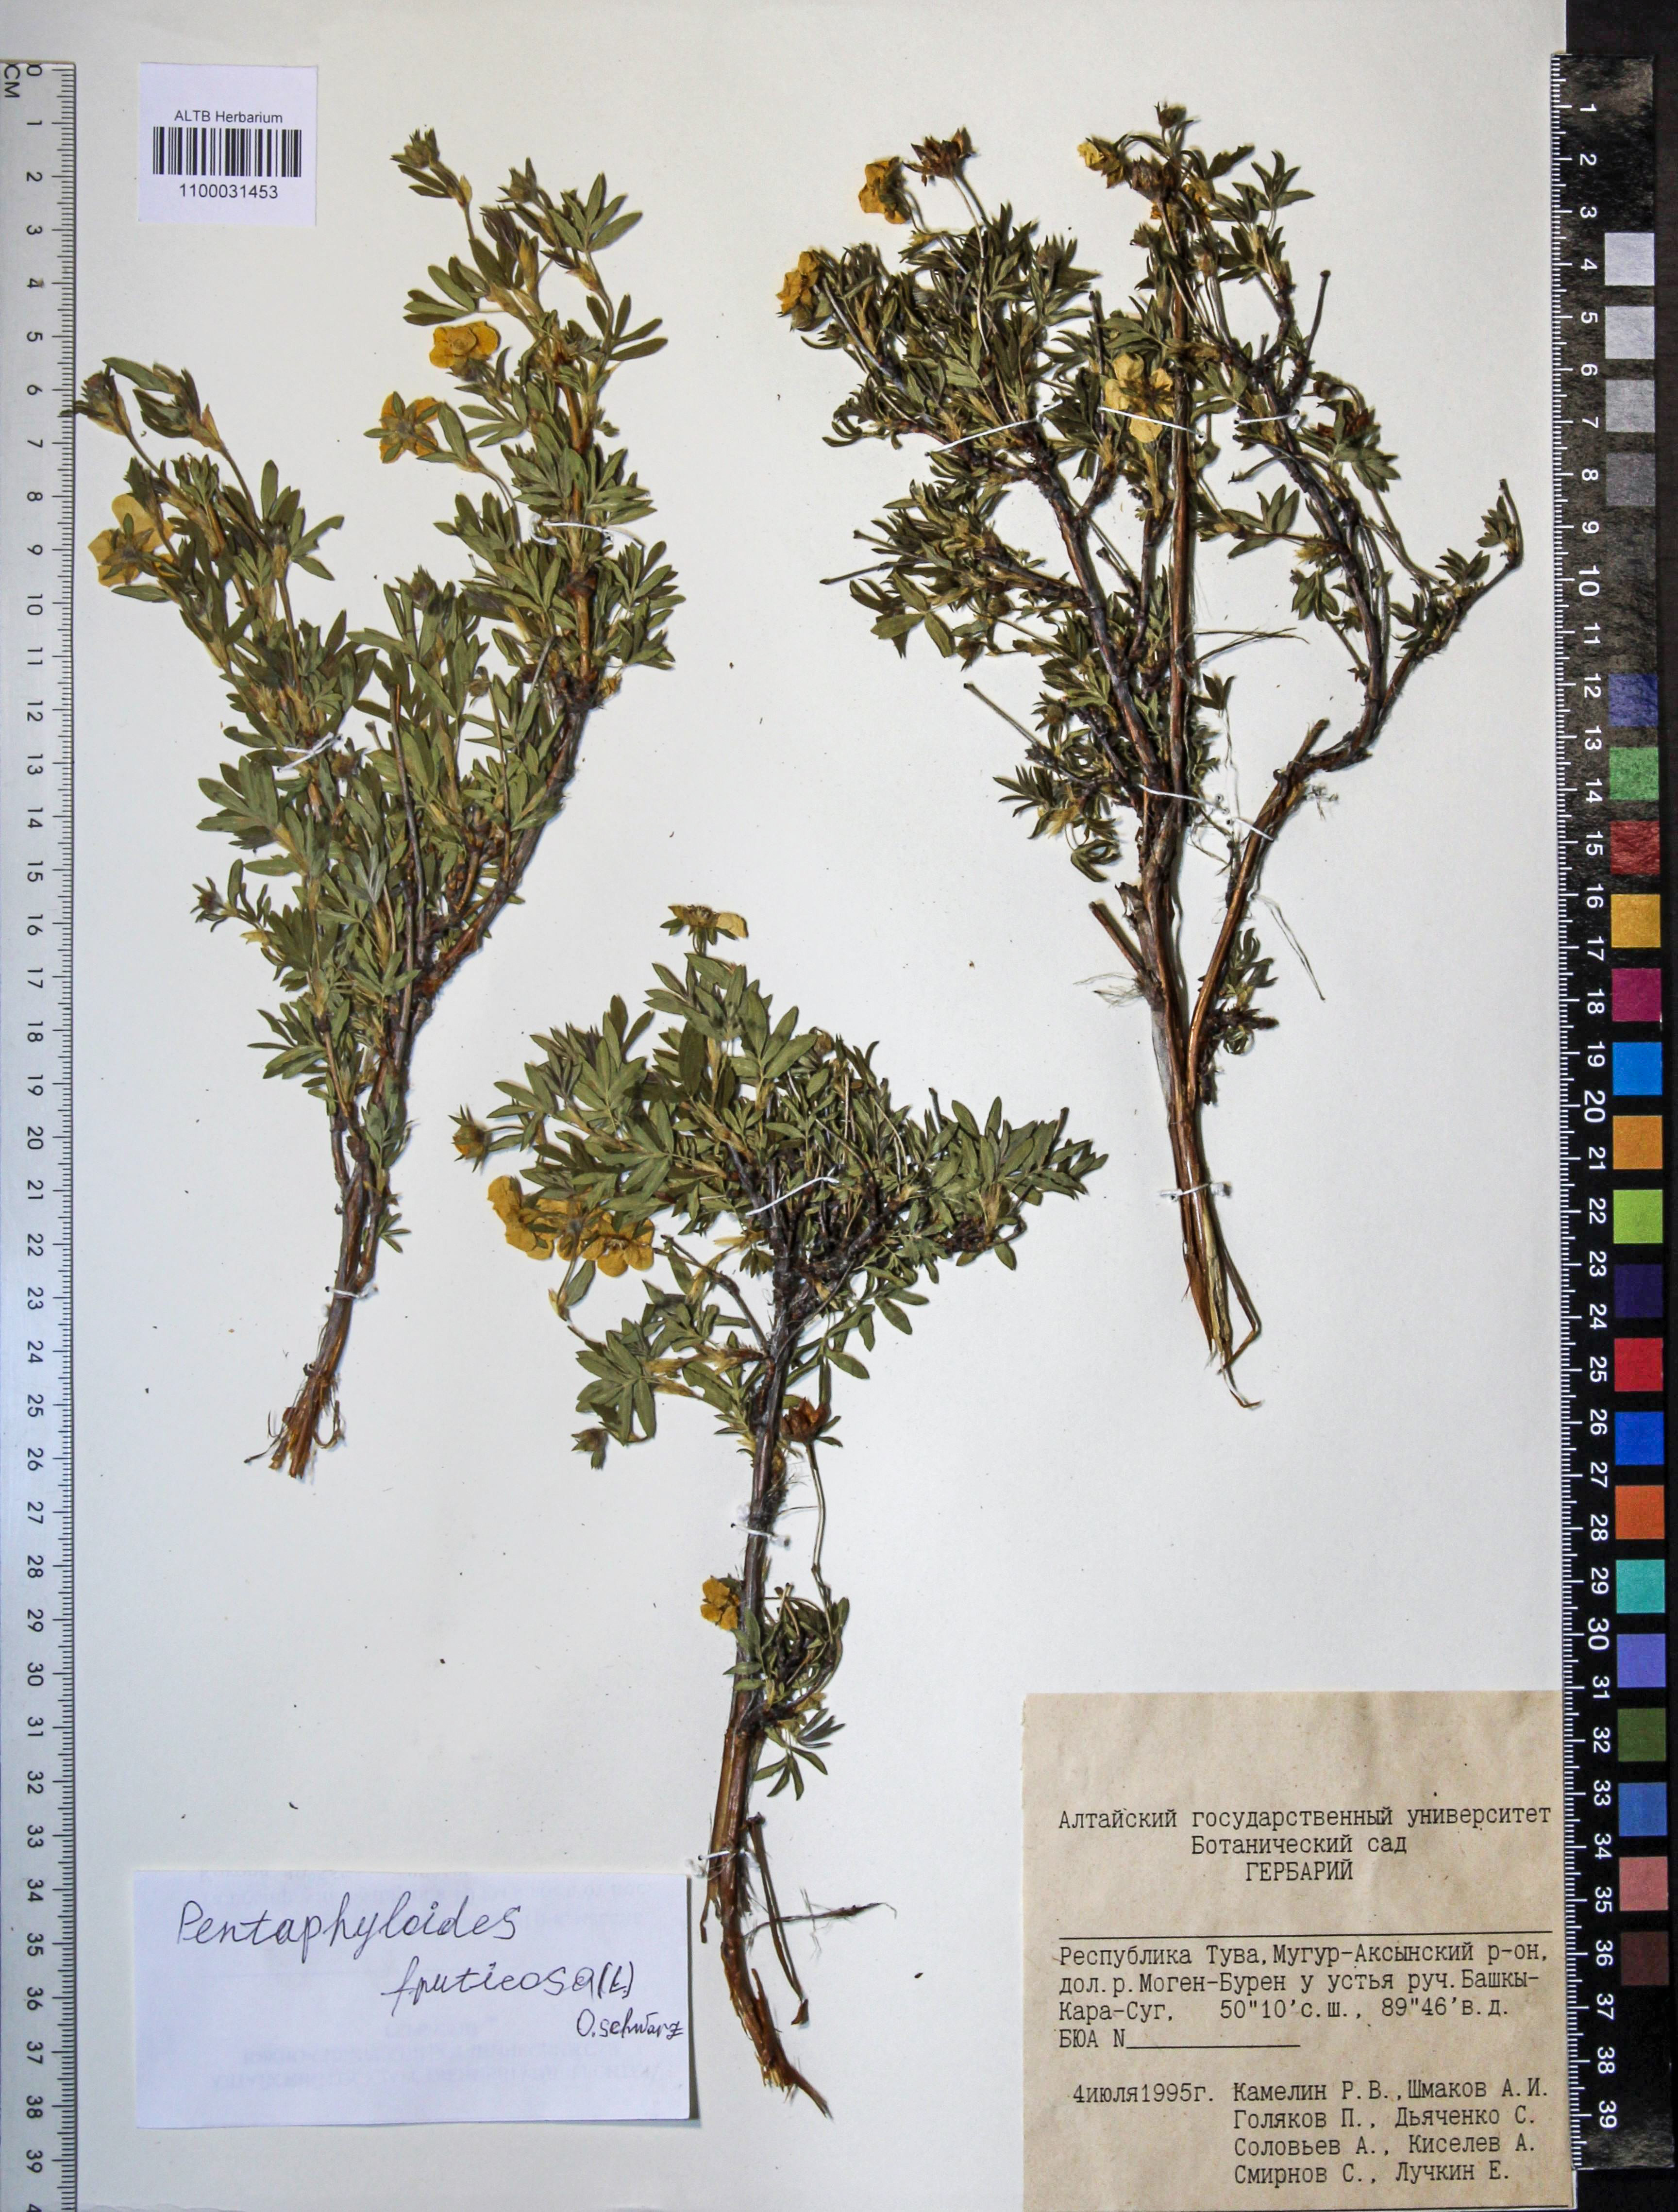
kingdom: Plantae
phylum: Tracheophyta
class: Magnoliopsida
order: Rosales
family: Rosaceae
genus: Dasiphora
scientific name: Dasiphora fruticosa
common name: Shrubby cinquefoil
